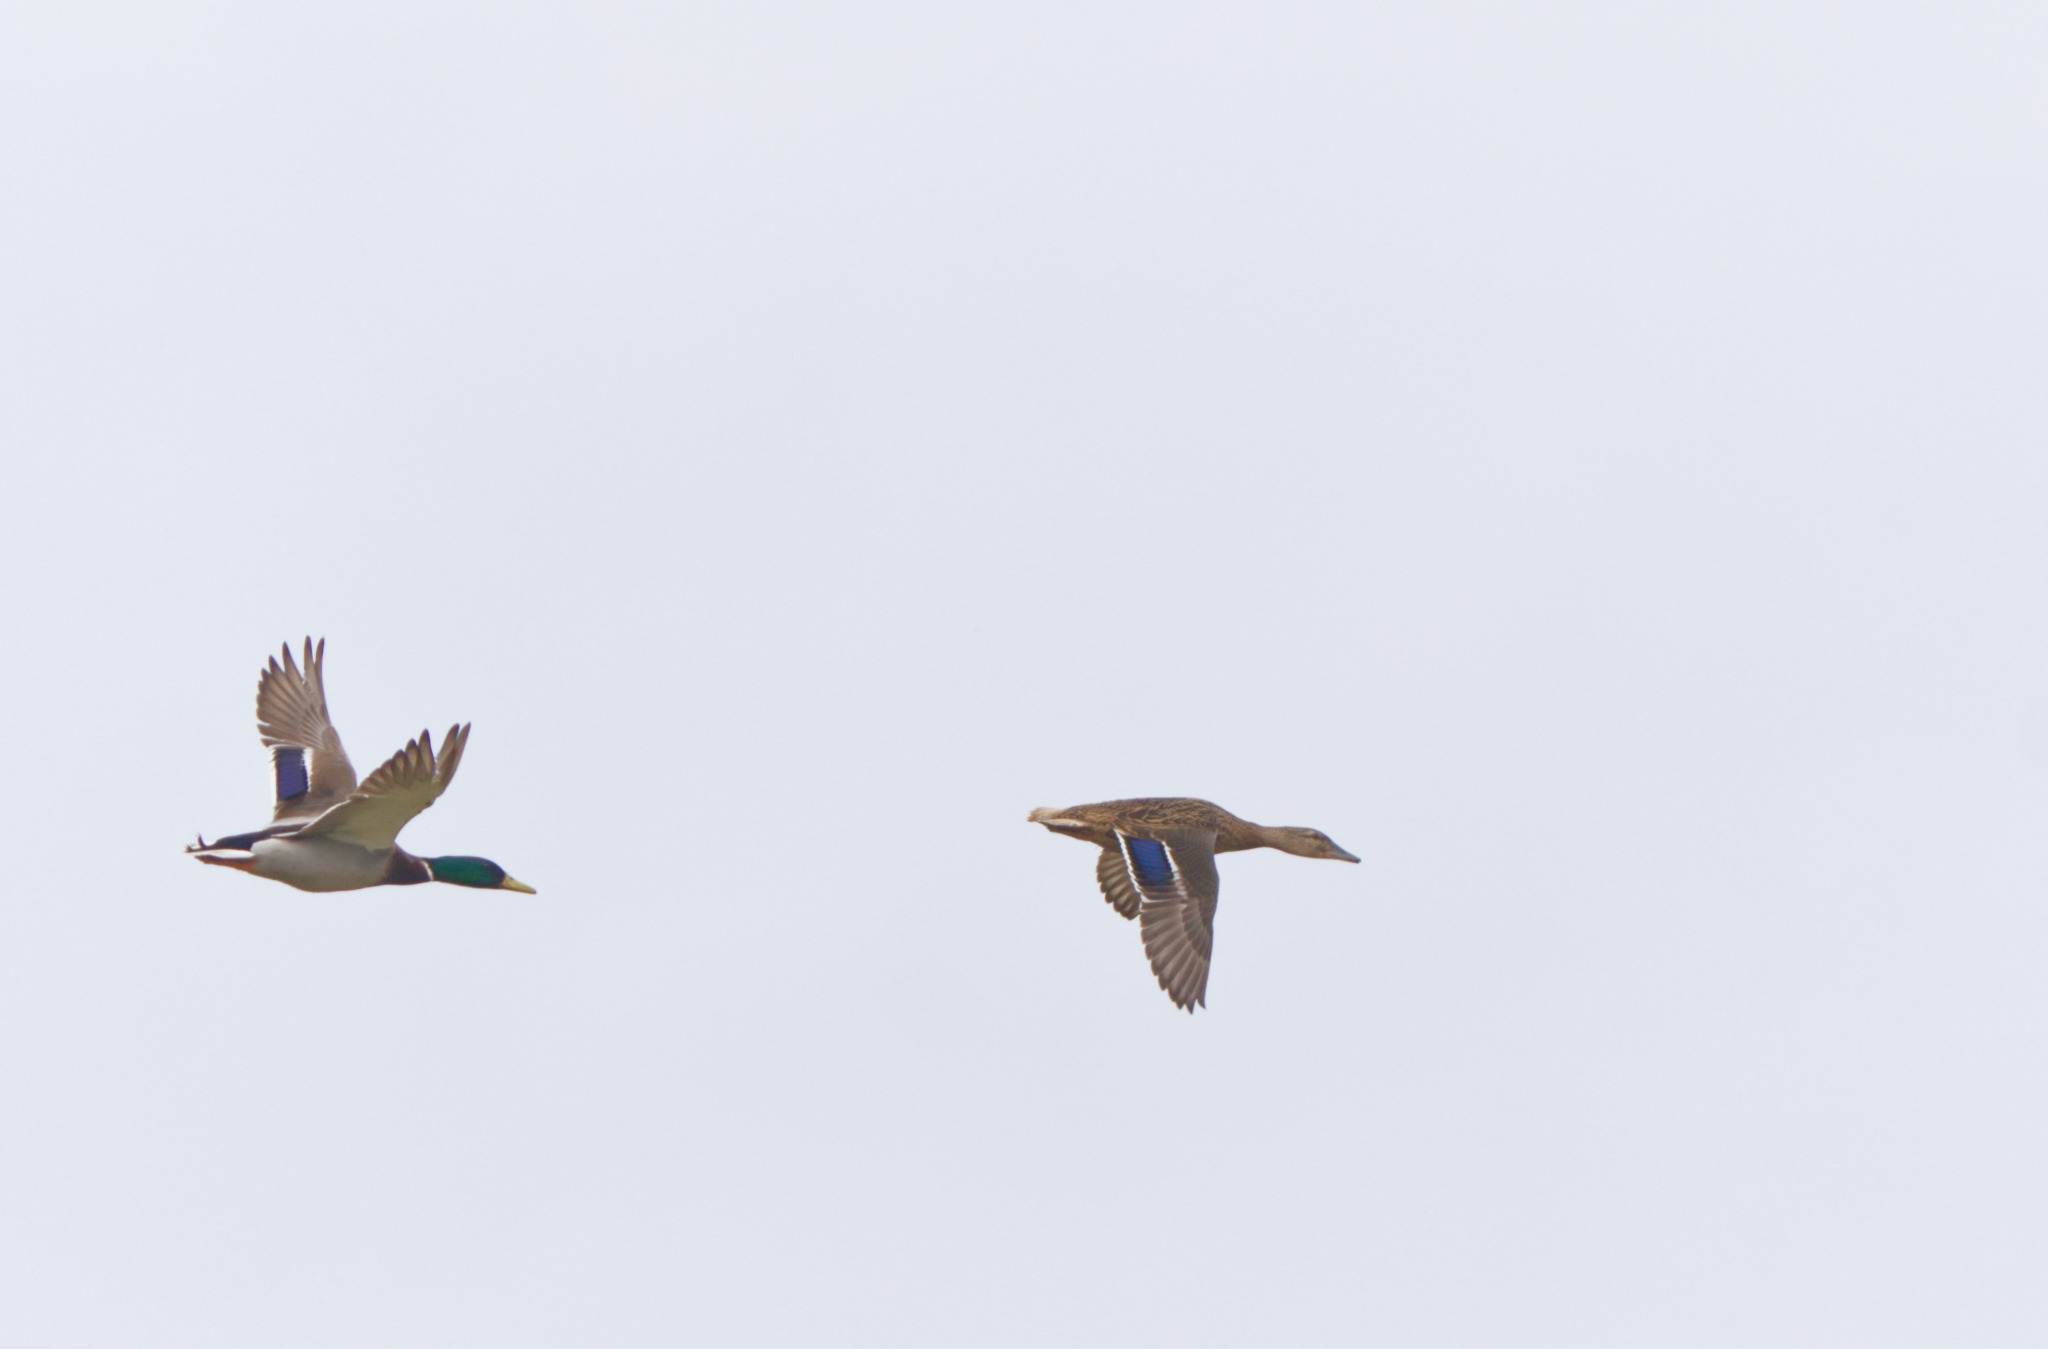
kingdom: Animalia
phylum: Chordata
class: Aves
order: Anseriformes
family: Anatidae
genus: Anas
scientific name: Anas platyrhynchos
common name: Gråand
